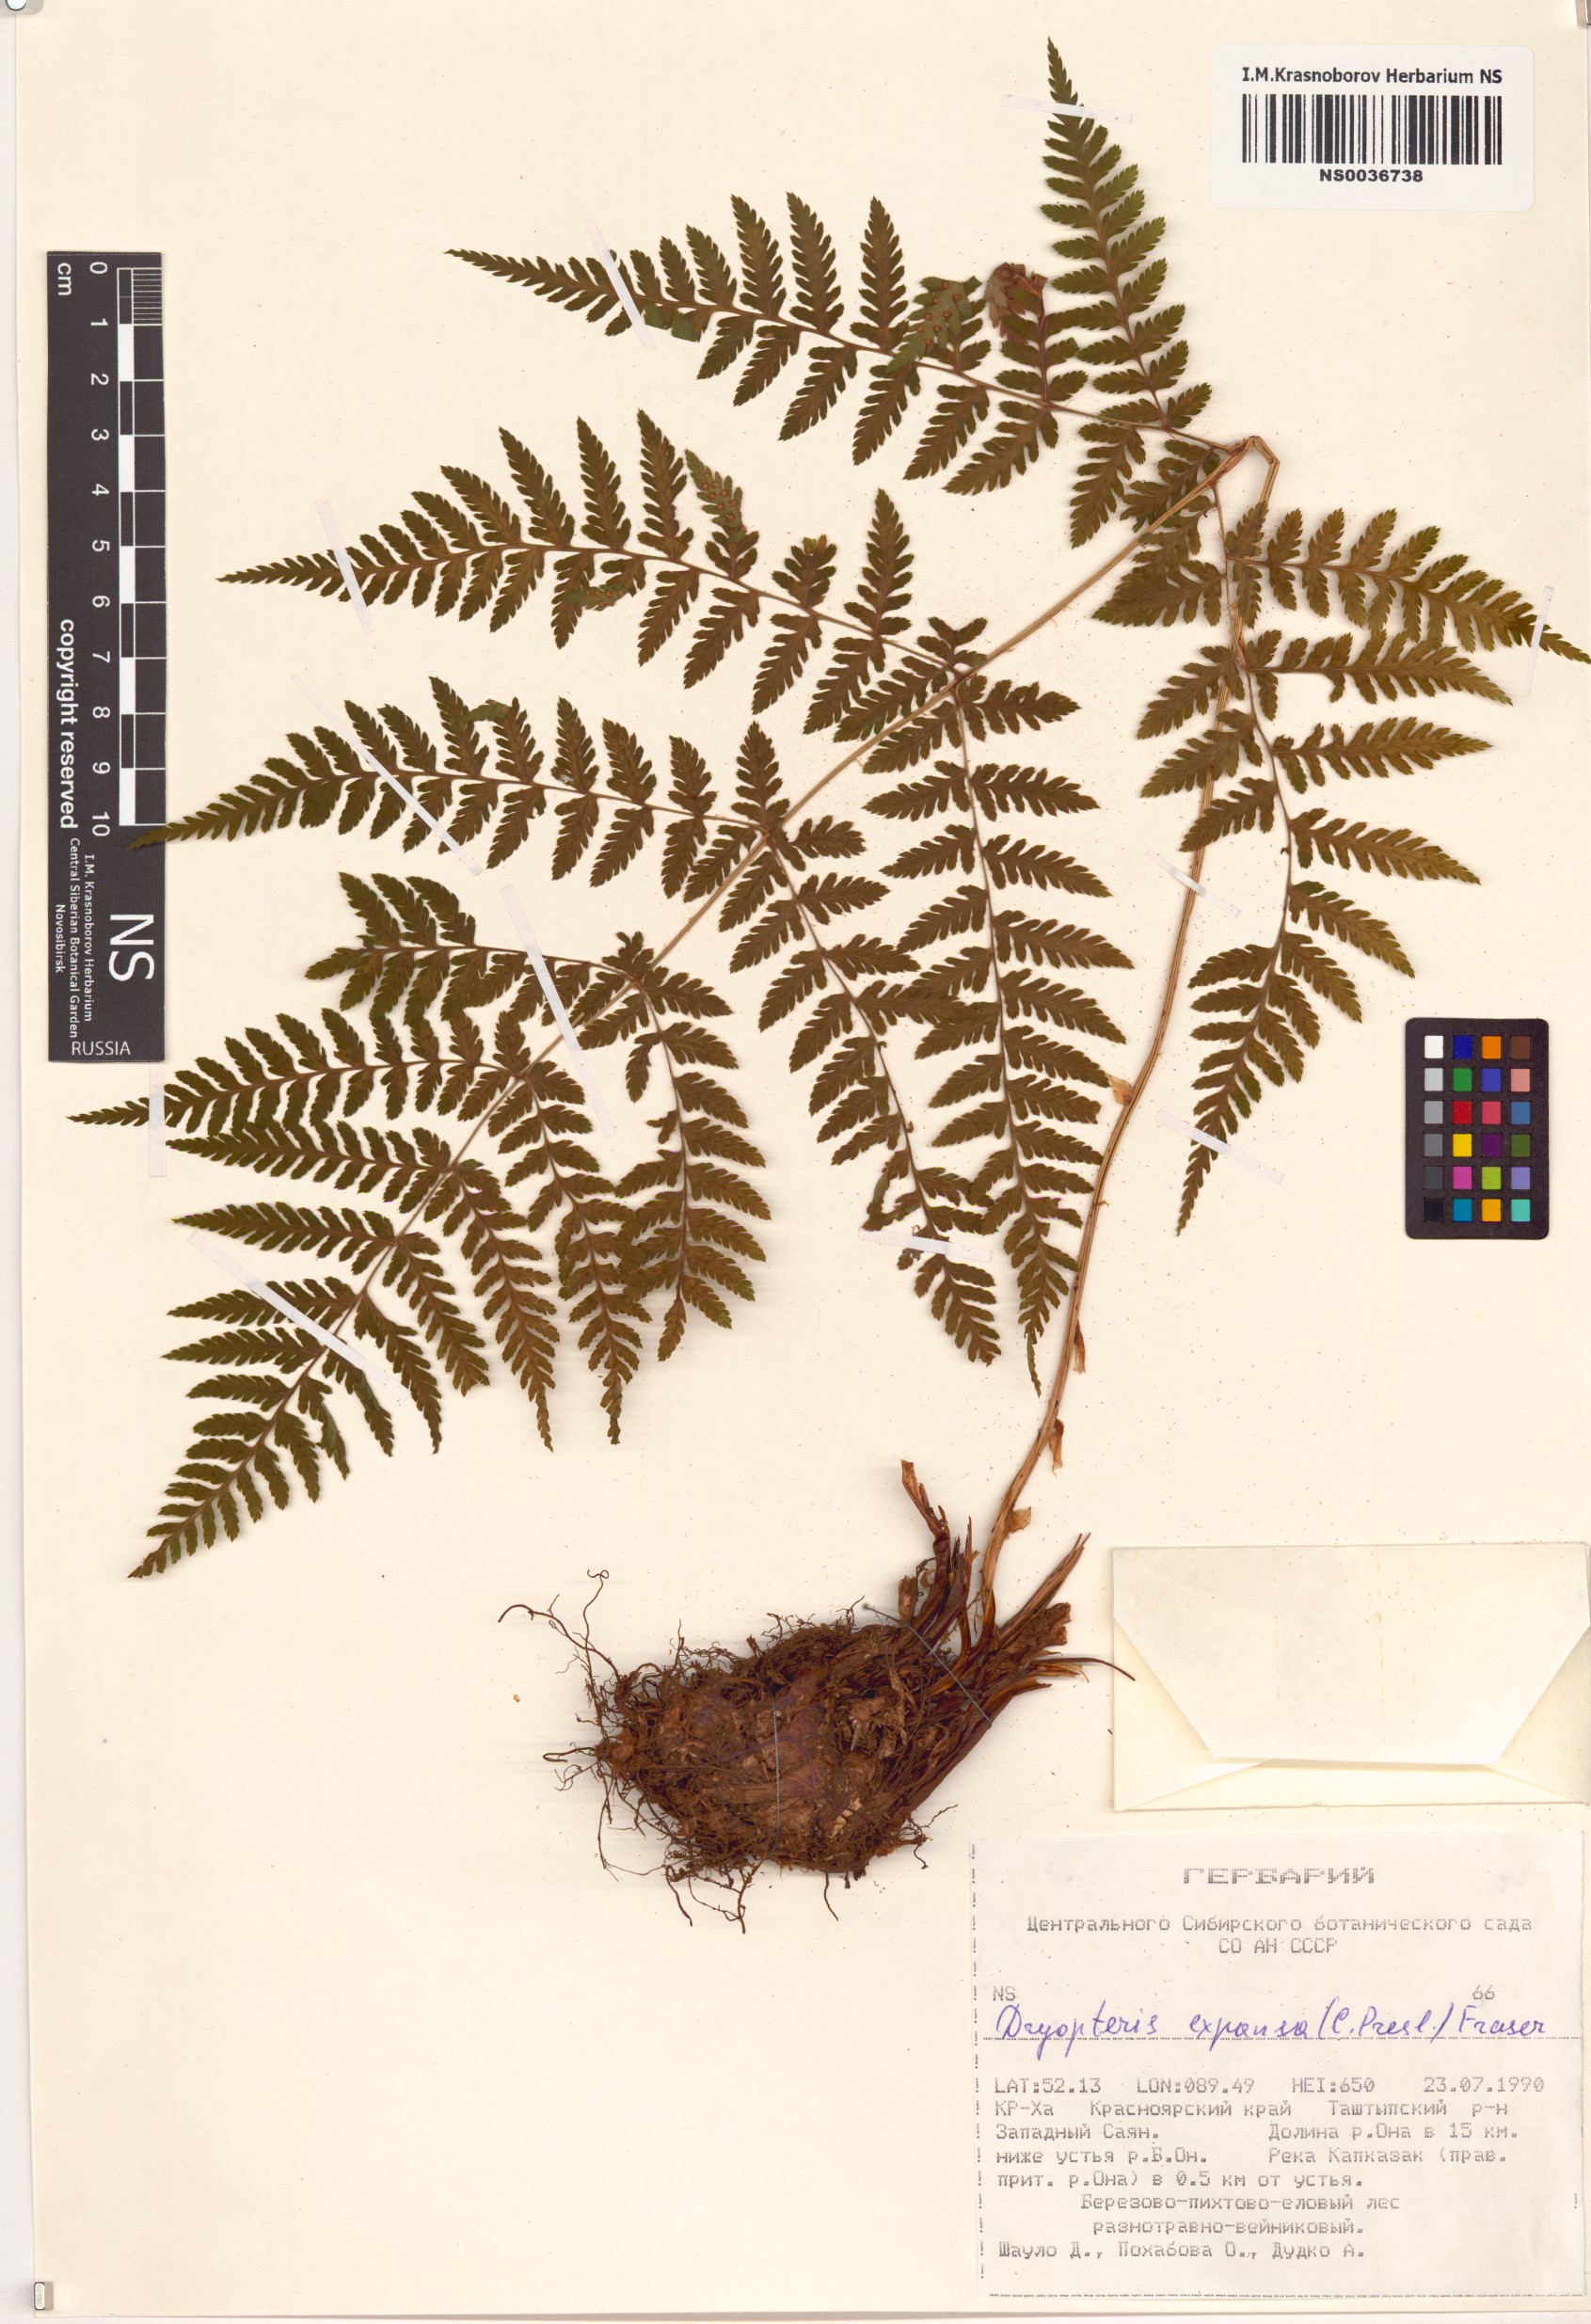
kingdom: Plantae
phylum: Tracheophyta
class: Polypodiopsida
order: Polypodiales
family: Dryopteridaceae
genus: Dryopteris
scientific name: Dryopteris expansa
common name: Northern buckler fern
